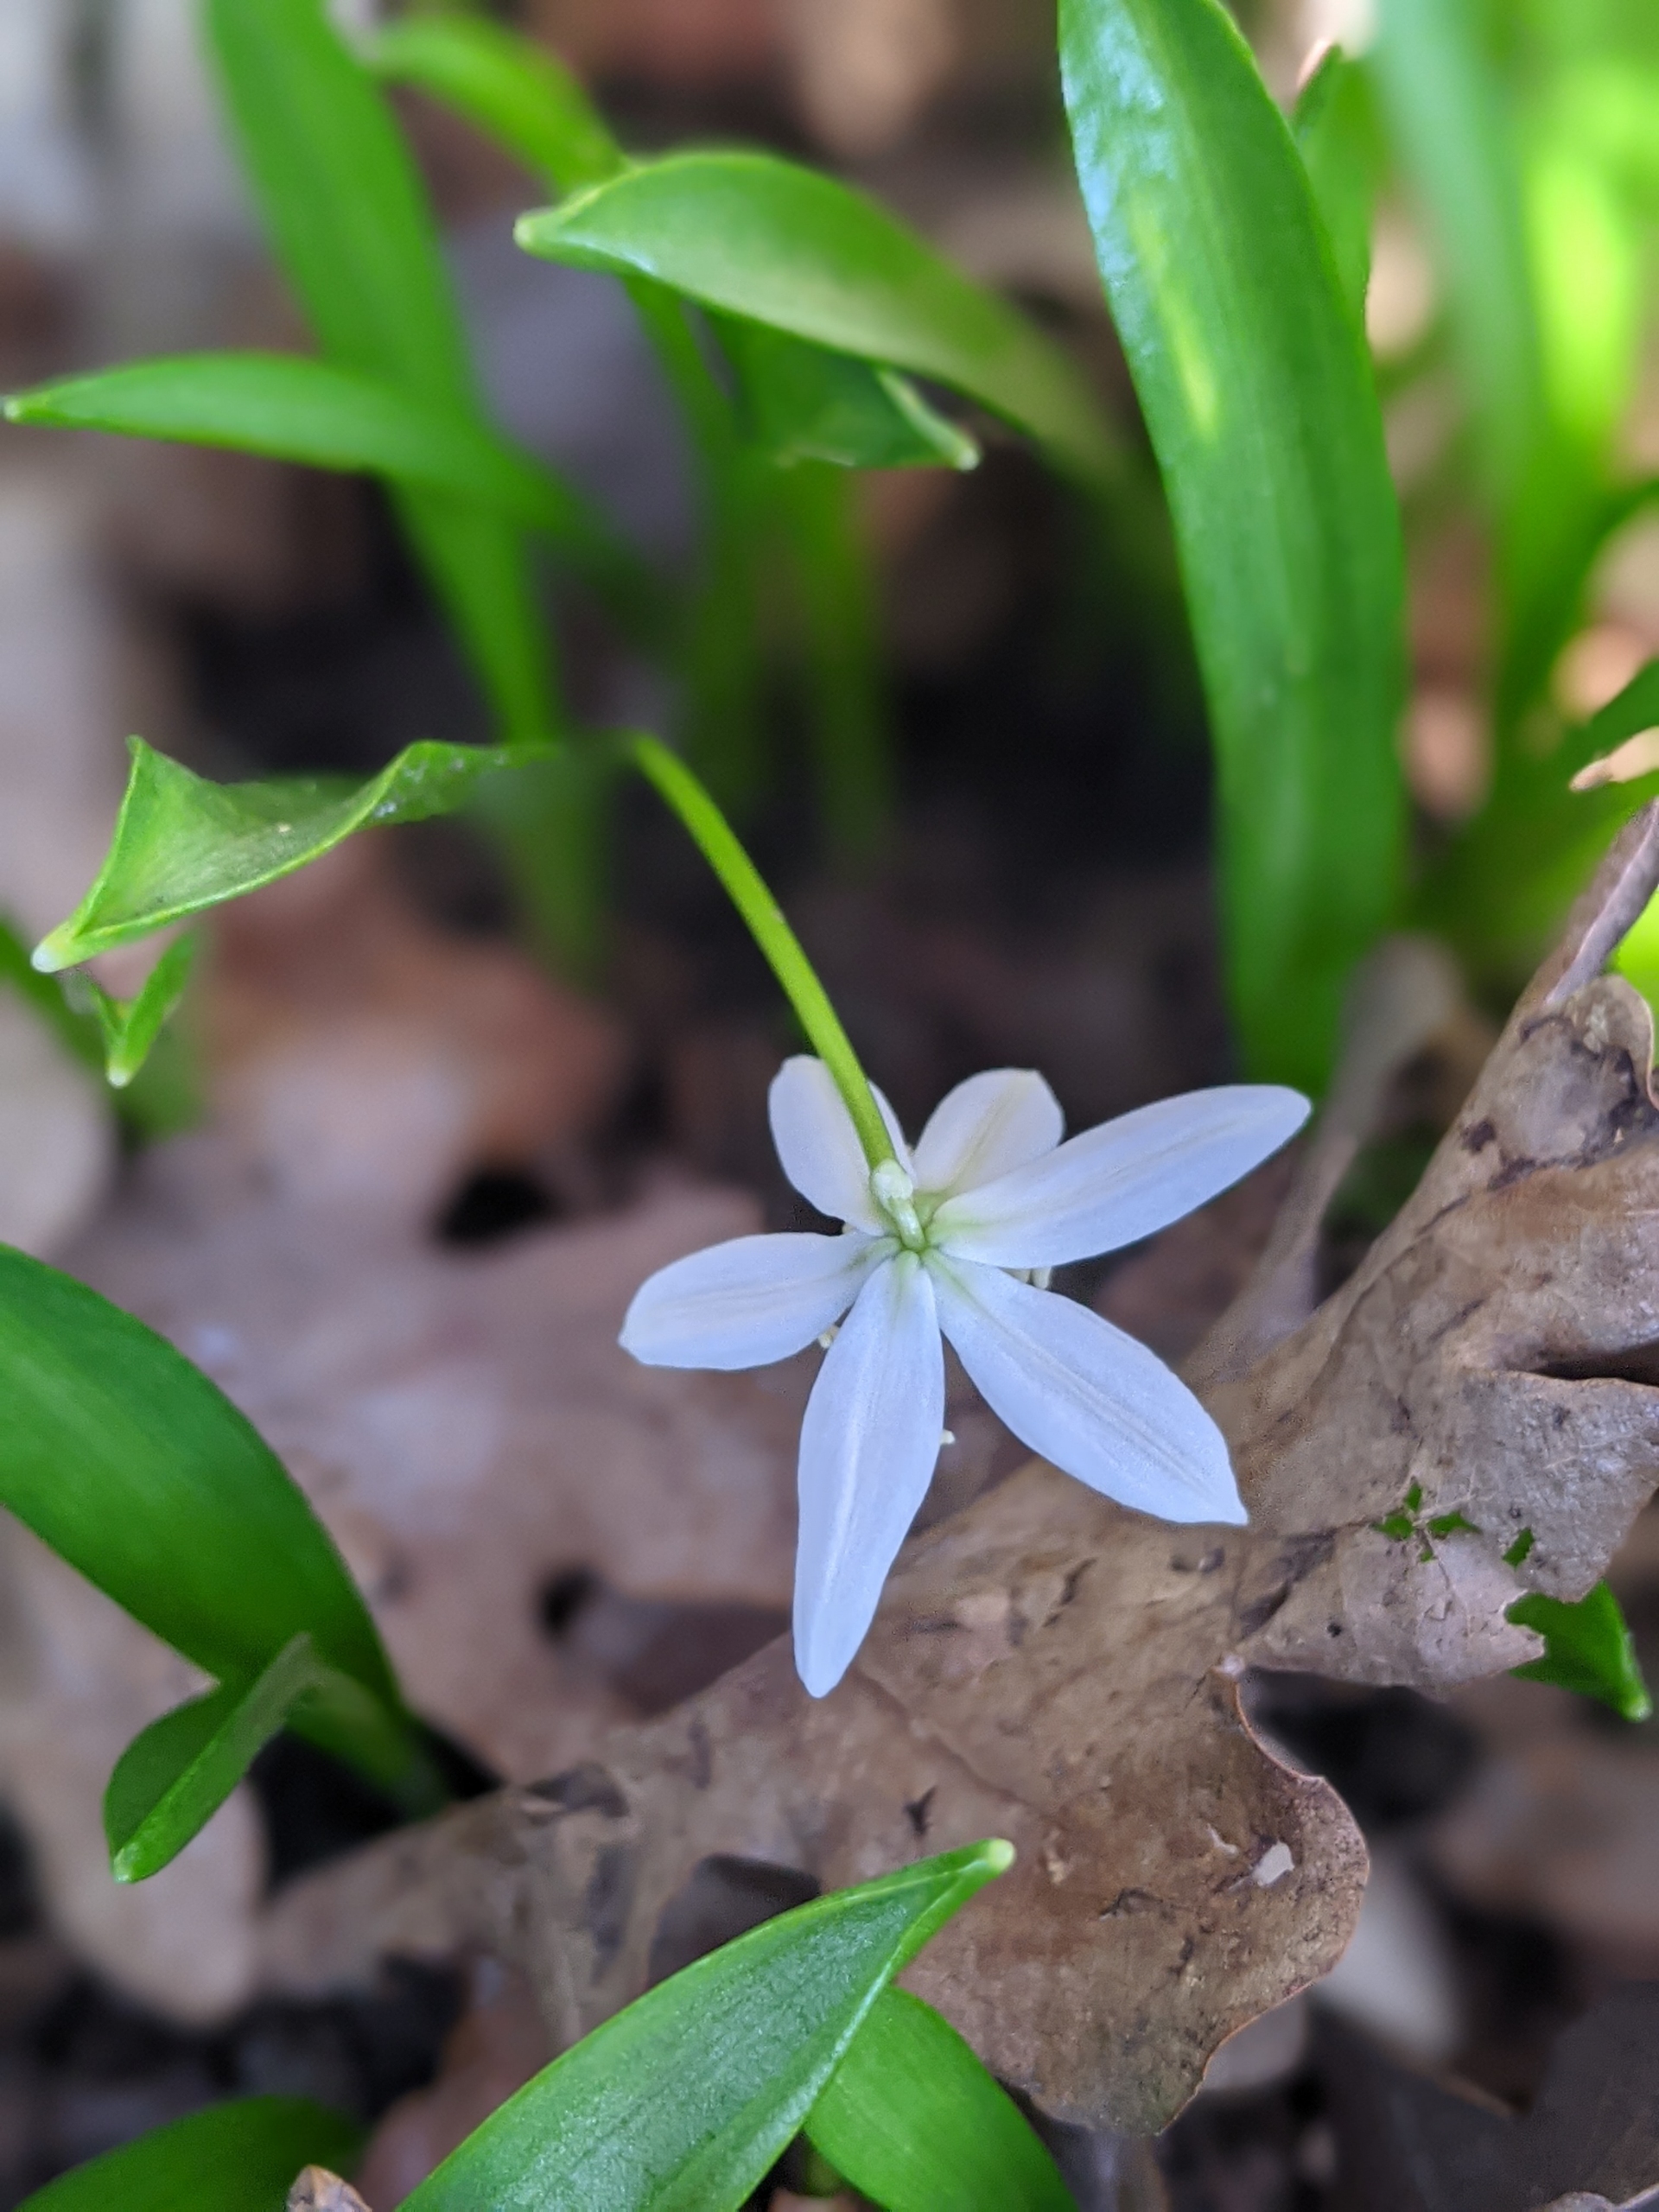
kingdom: Plantae
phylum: Tracheophyta
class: Liliopsida
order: Asparagales
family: Asparagaceae
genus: Scilla
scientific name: Scilla mischtschenkoana
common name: Persisk skilla
